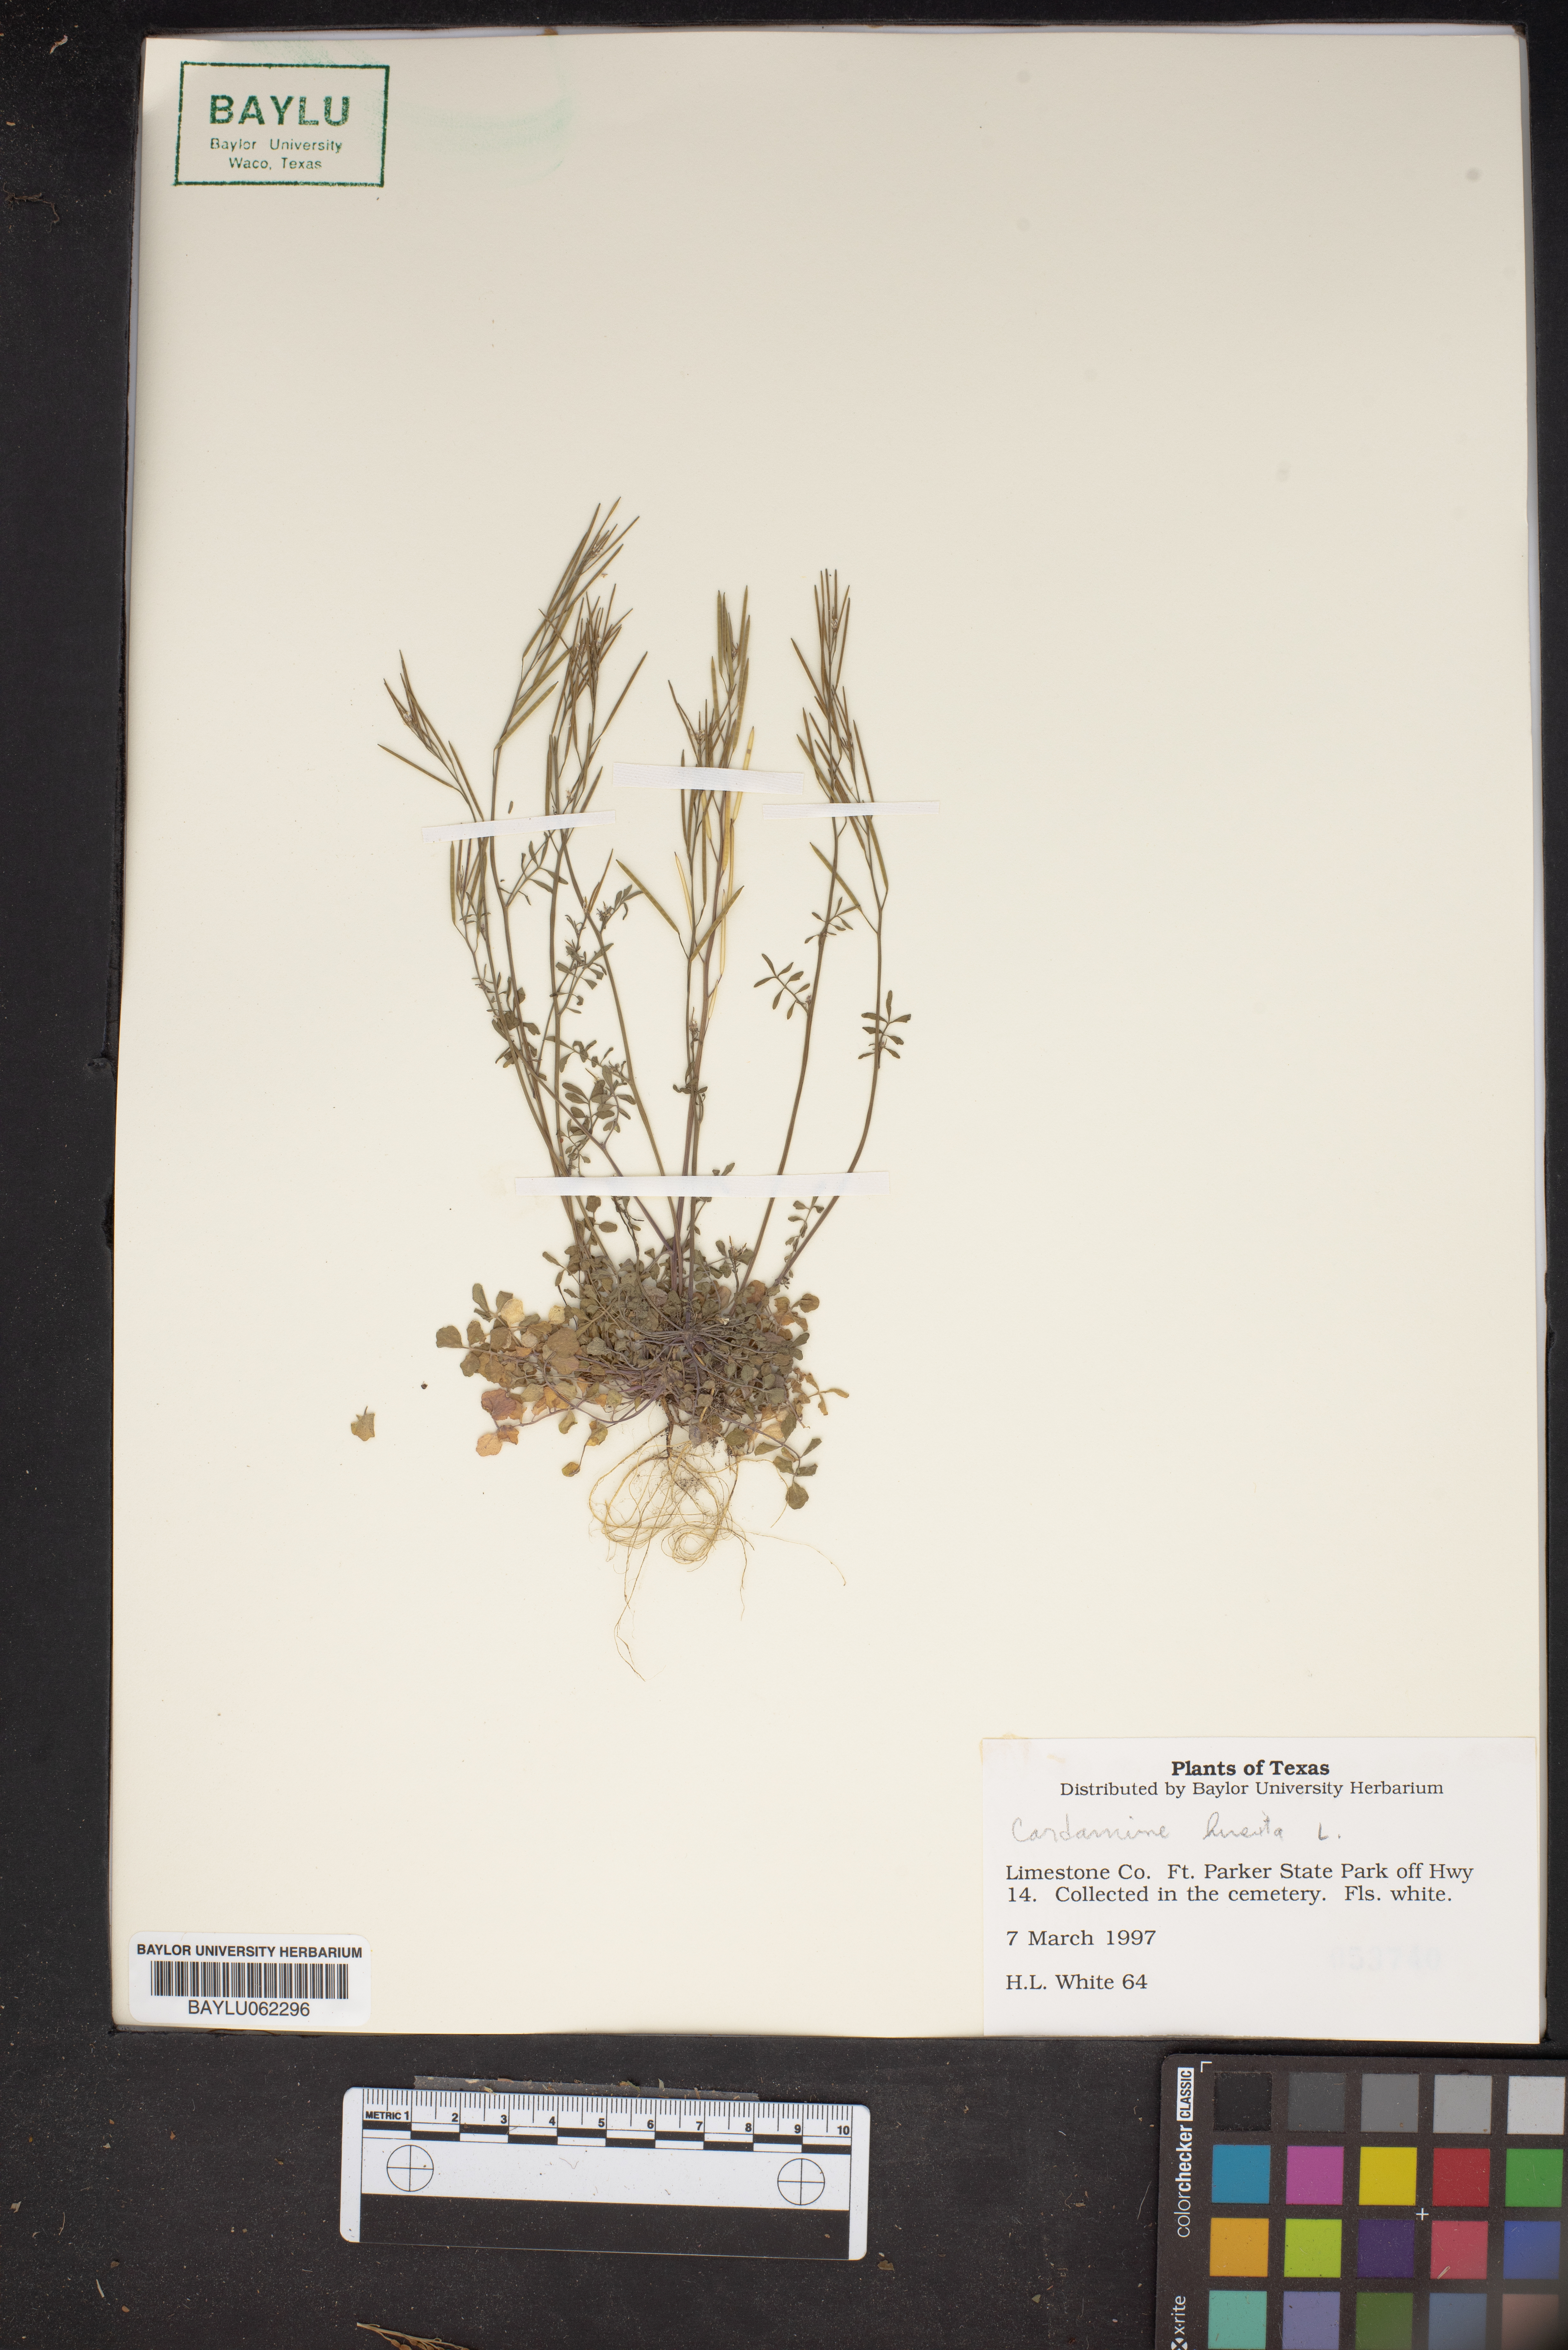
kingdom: Plantae
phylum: Tracheophyta
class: Magnoliopsida
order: Brassicales
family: Brassicaceae
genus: Cardamine
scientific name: Cardamine hirsuta
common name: Hairy bittercress
